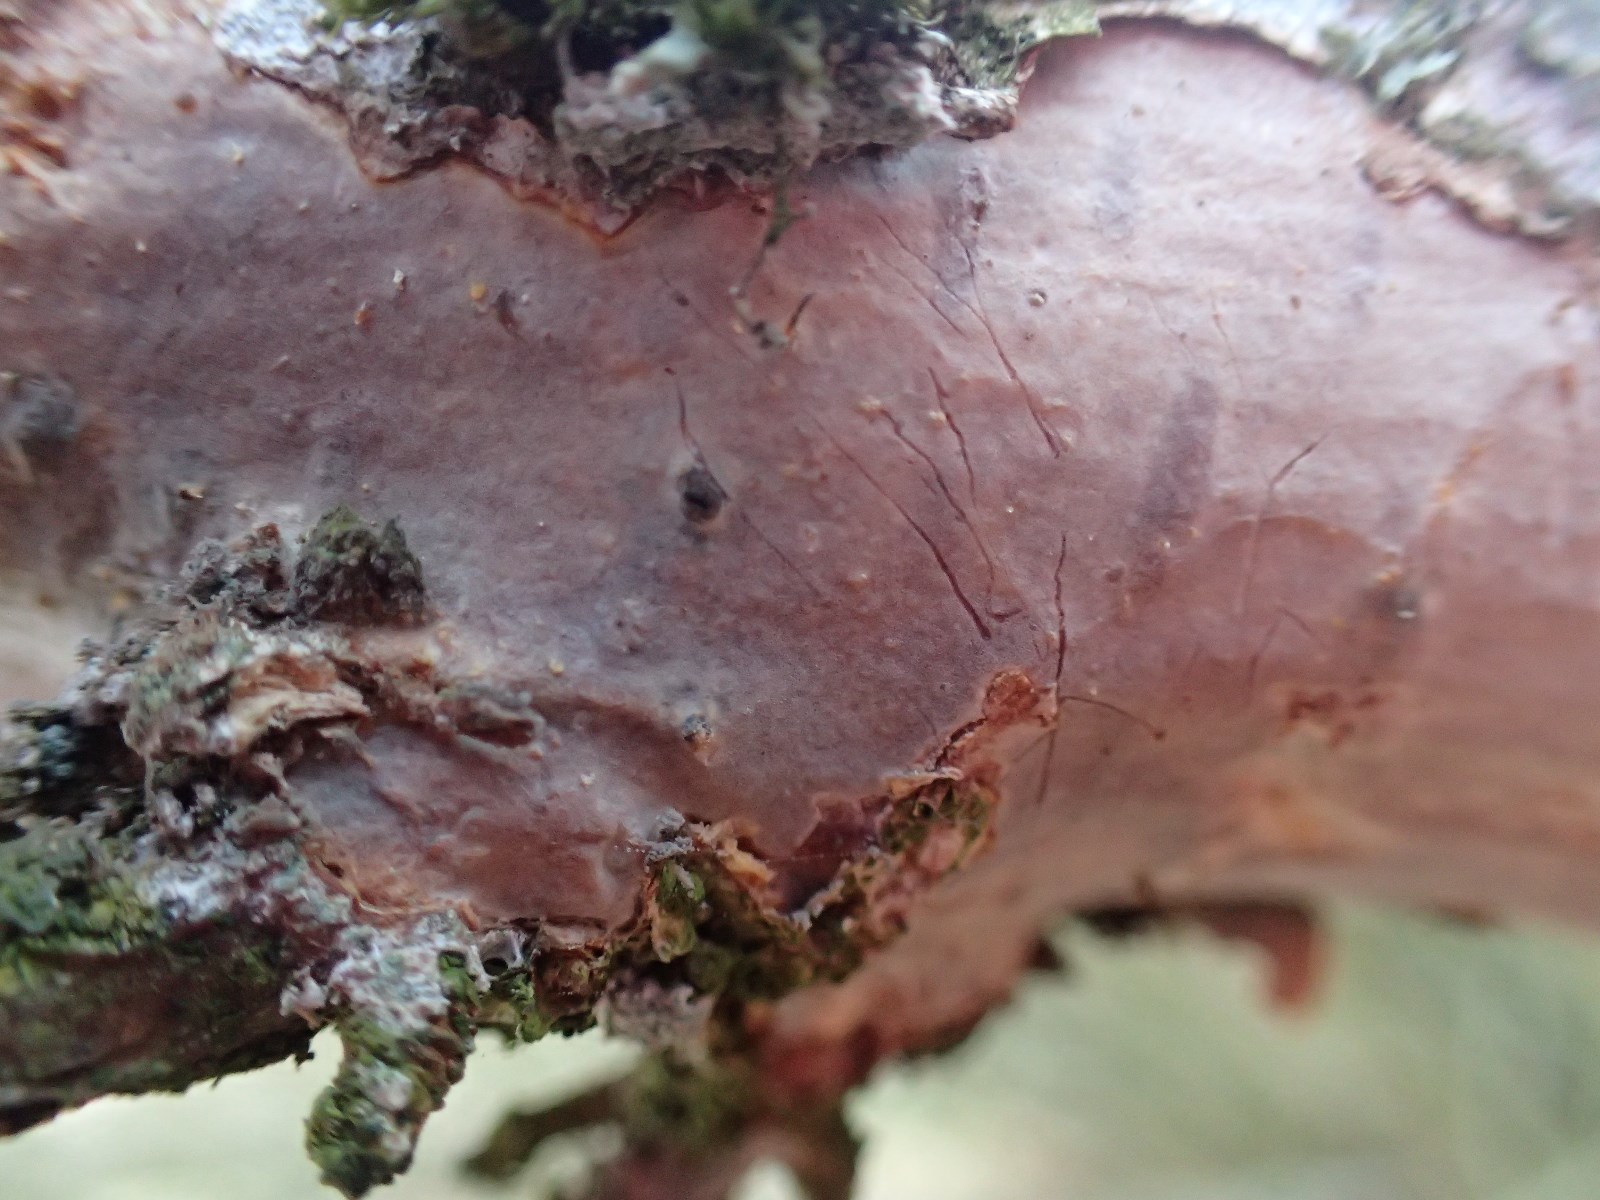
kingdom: Fungi
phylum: Basidiomycota
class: Agaricomycetes
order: Corticiales
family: Vuilleminiaceae
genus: Vuilleminia
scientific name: Vuilleminia coryli
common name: hassel-barksprænger
